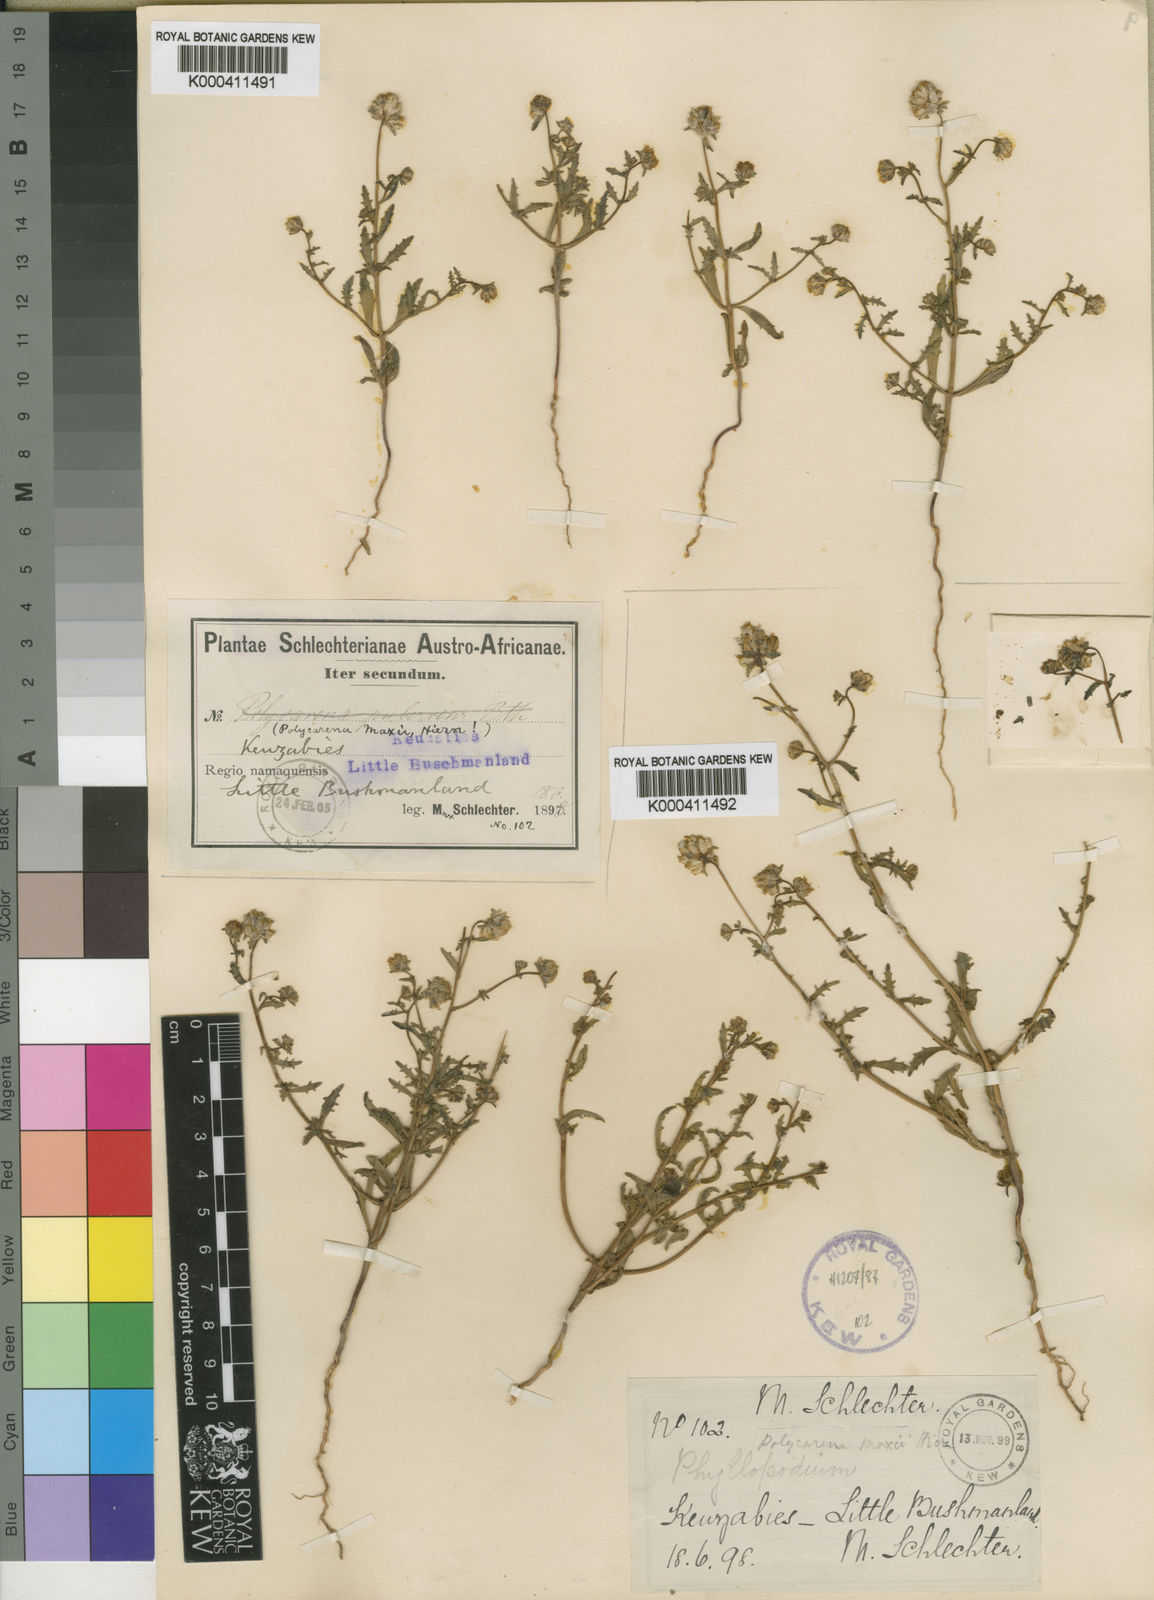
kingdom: Plantae
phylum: Tracheophyta
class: Magnoliopsida
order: Lamiales
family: Scrophulariaceae
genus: Phyllopodium
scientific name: Phyllopodium maxii
